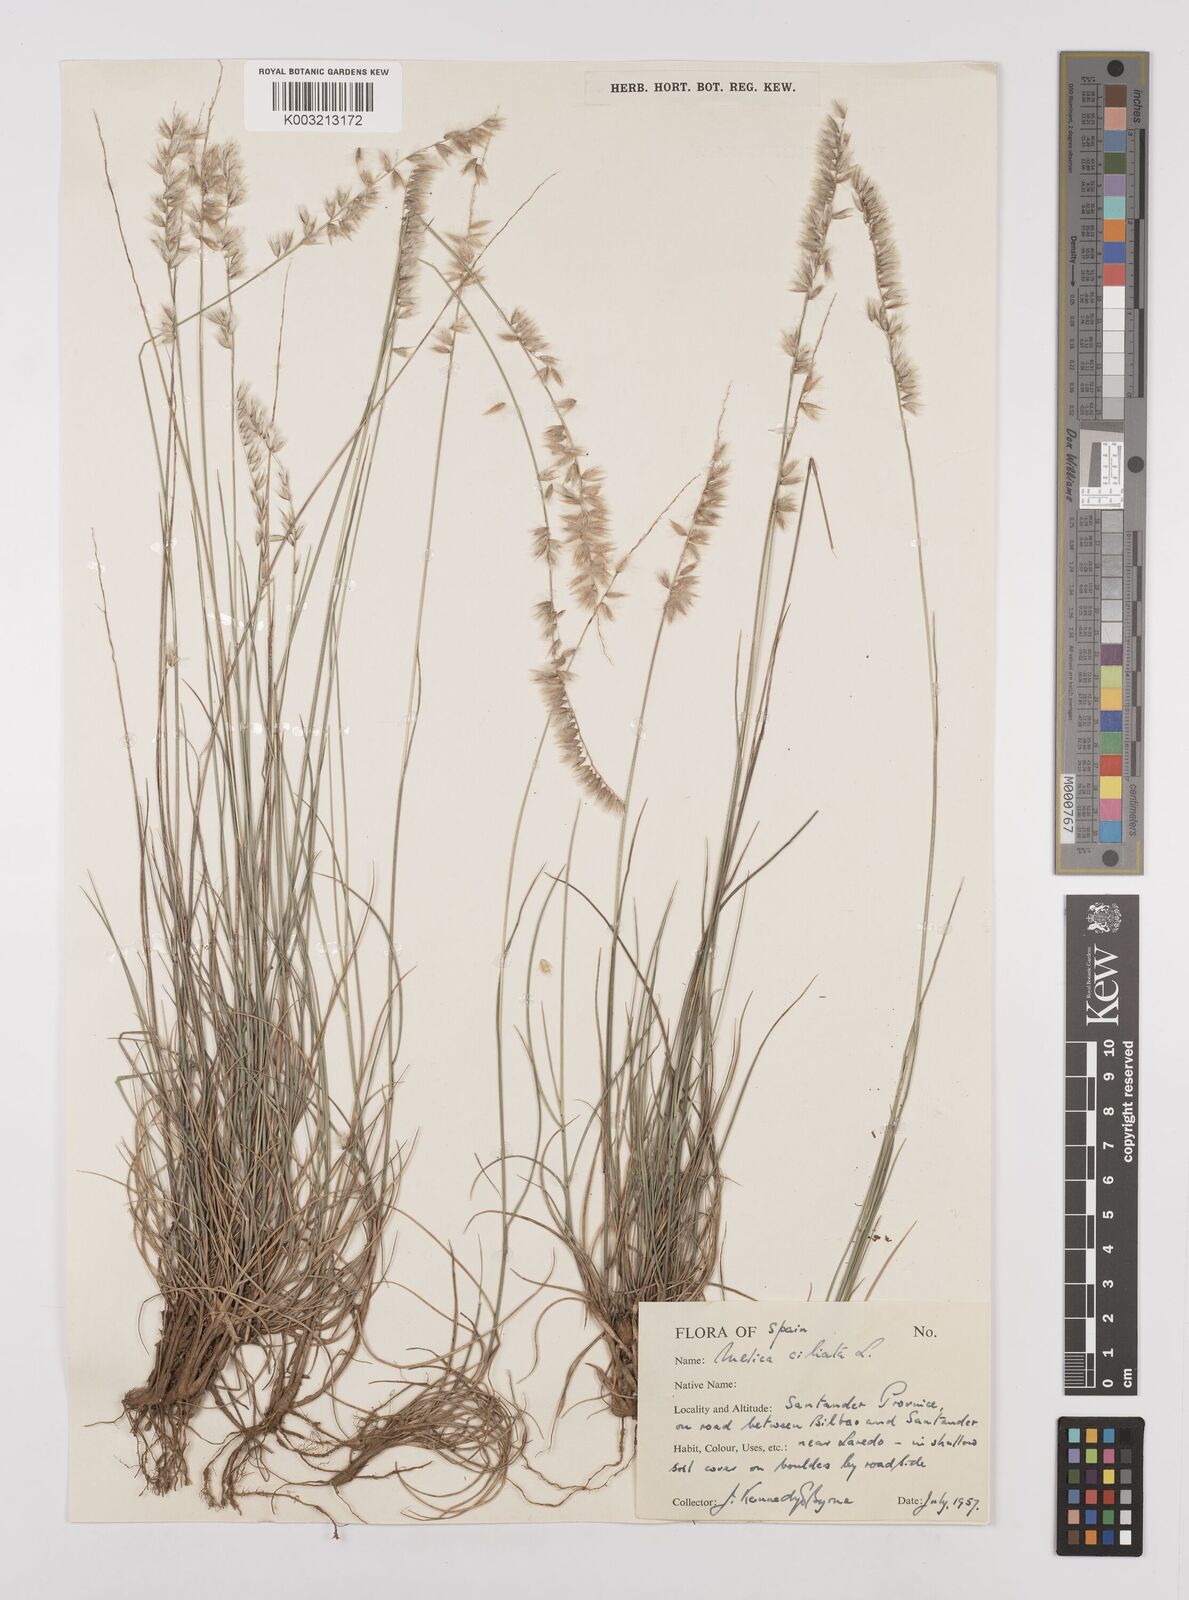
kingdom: Plantae
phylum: Tracheophyta
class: Liliopsida
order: Poales
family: Poaceae
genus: Melica
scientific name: Melica ciliata
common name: Hairy melicgrass
